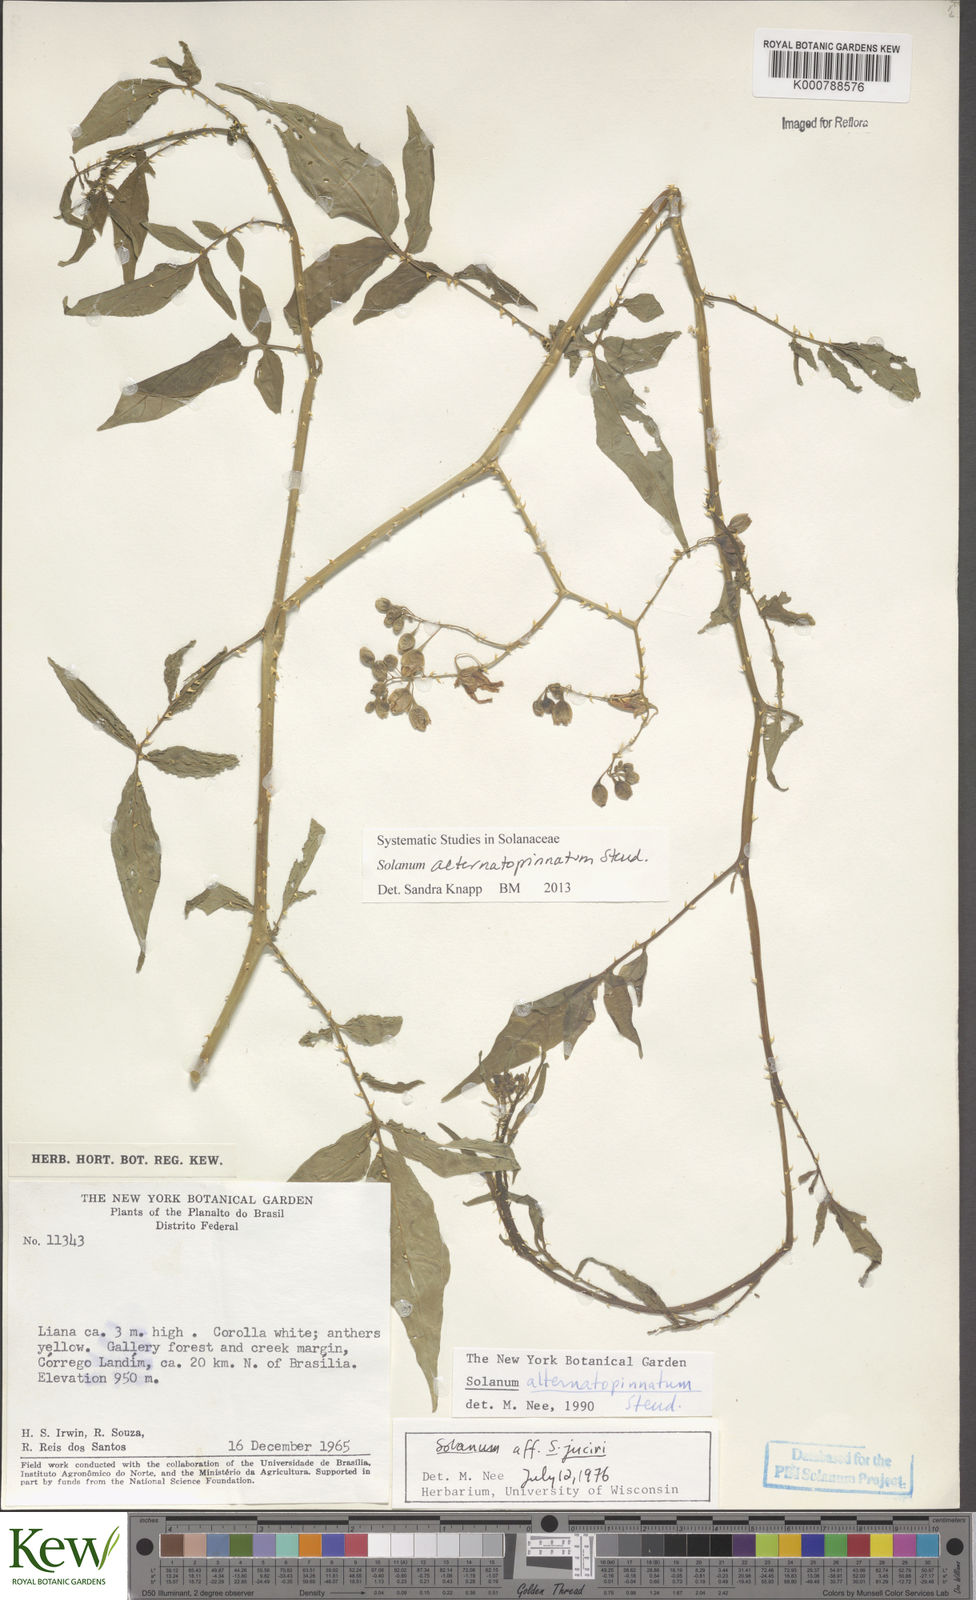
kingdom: Plantae
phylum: Tracheophyta
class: Magnoliopsida
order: Solanales
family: Solanaceae
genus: Solanum
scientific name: Solanum alternatopinnatum
